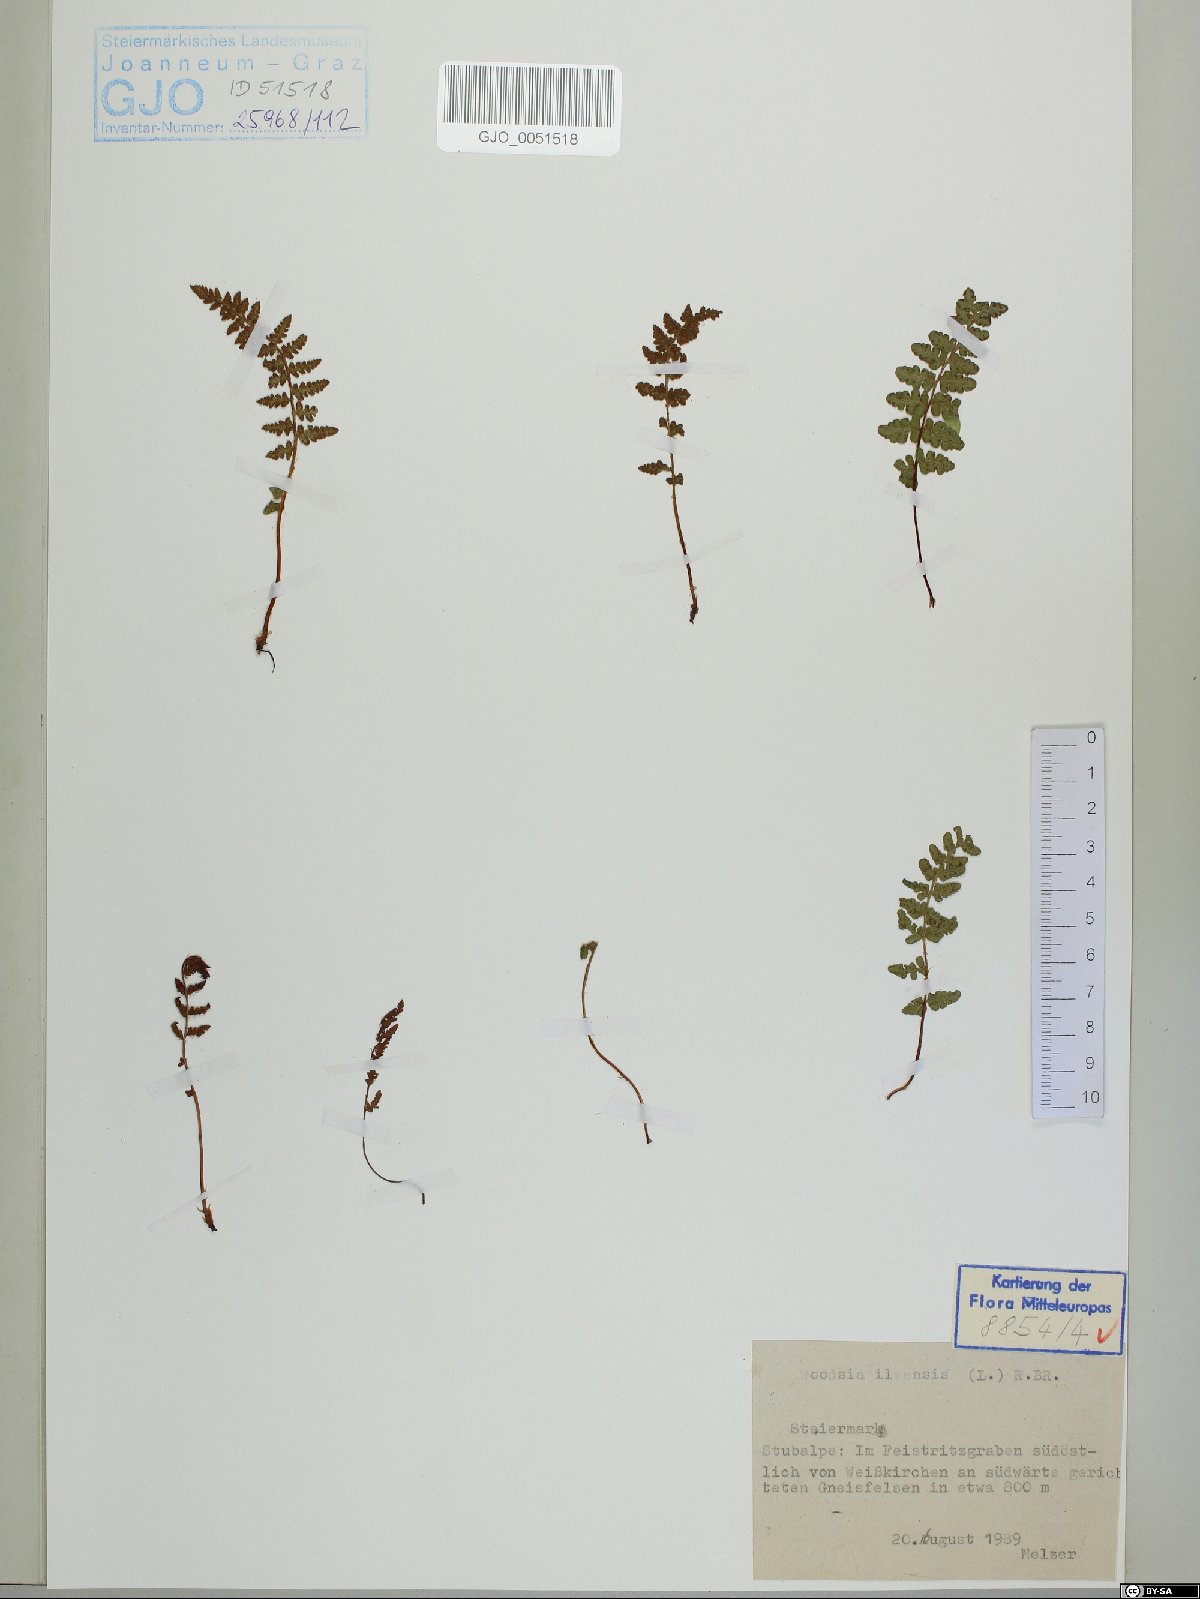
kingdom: Plantae
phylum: Tracheophyta
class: Polypodiopsida
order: Polypodiales
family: Woodsiaceae
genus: Woodsia
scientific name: Woodsia ilvensis
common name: Fragrant woodsia
